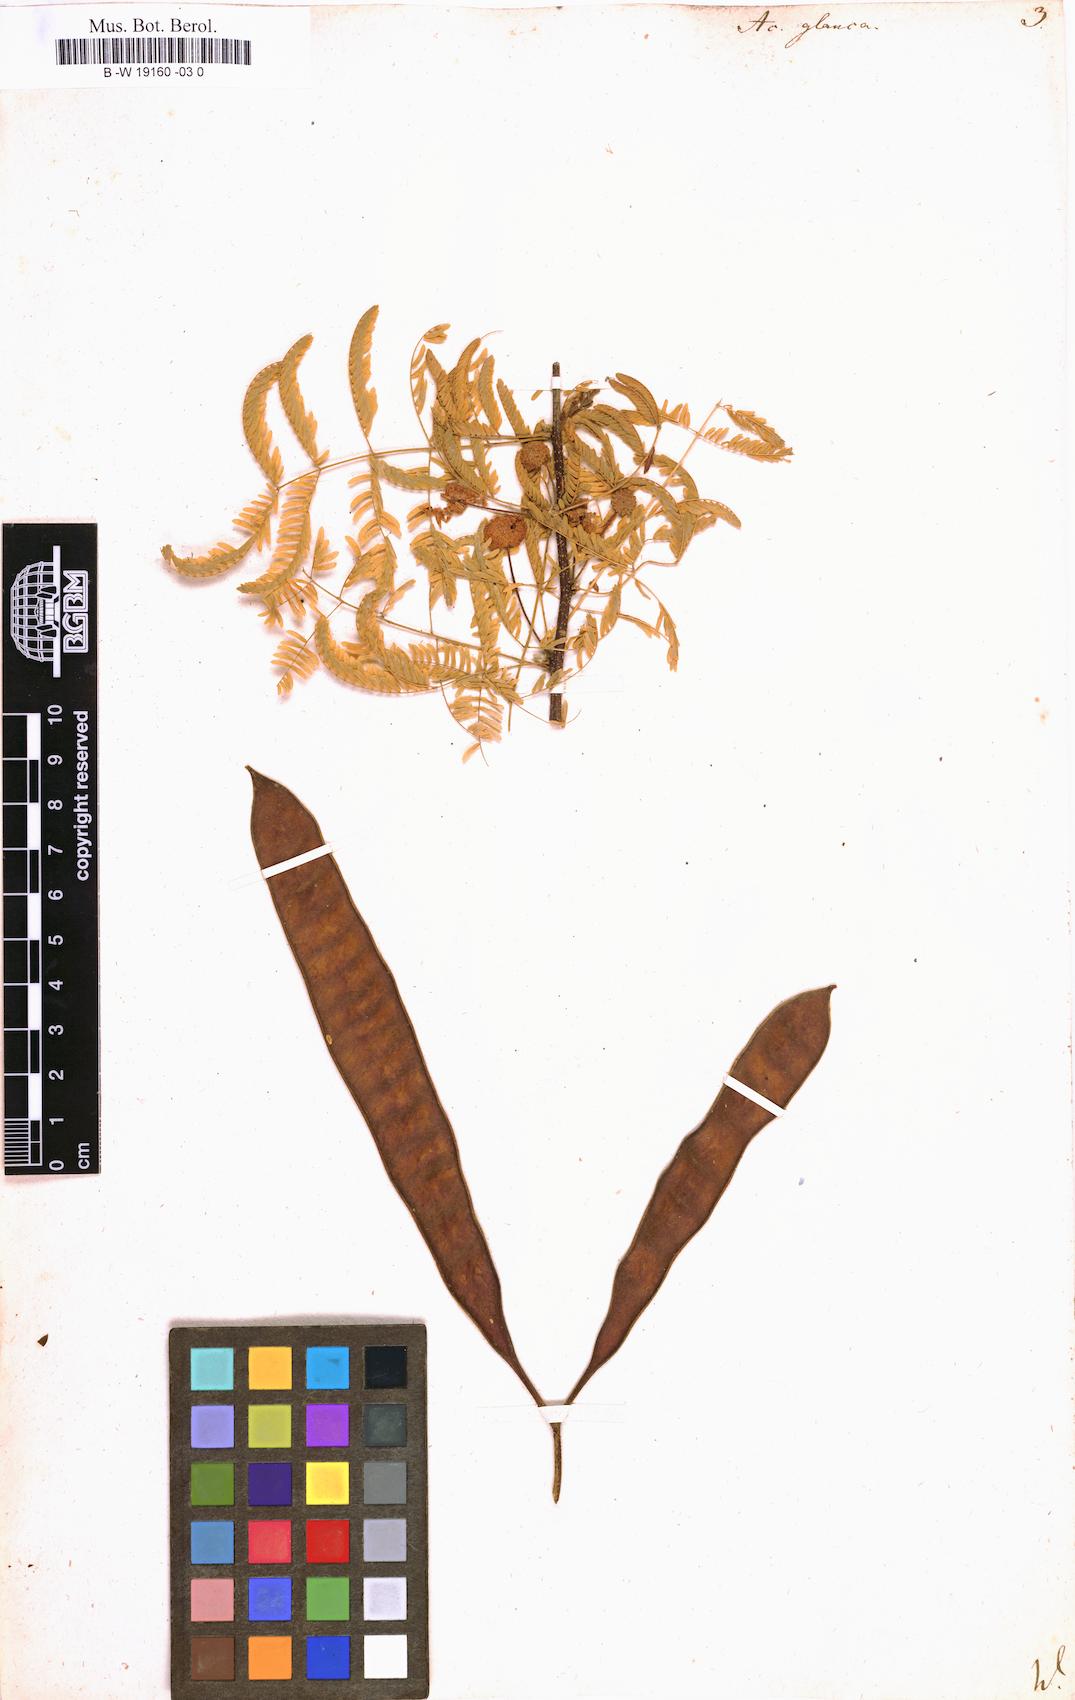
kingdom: Plantae
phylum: Tracheophyta
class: Magnoliopsida
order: Fabales
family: Fabaceae
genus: Acaciella
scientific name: Acaciella glauca
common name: Redwood
